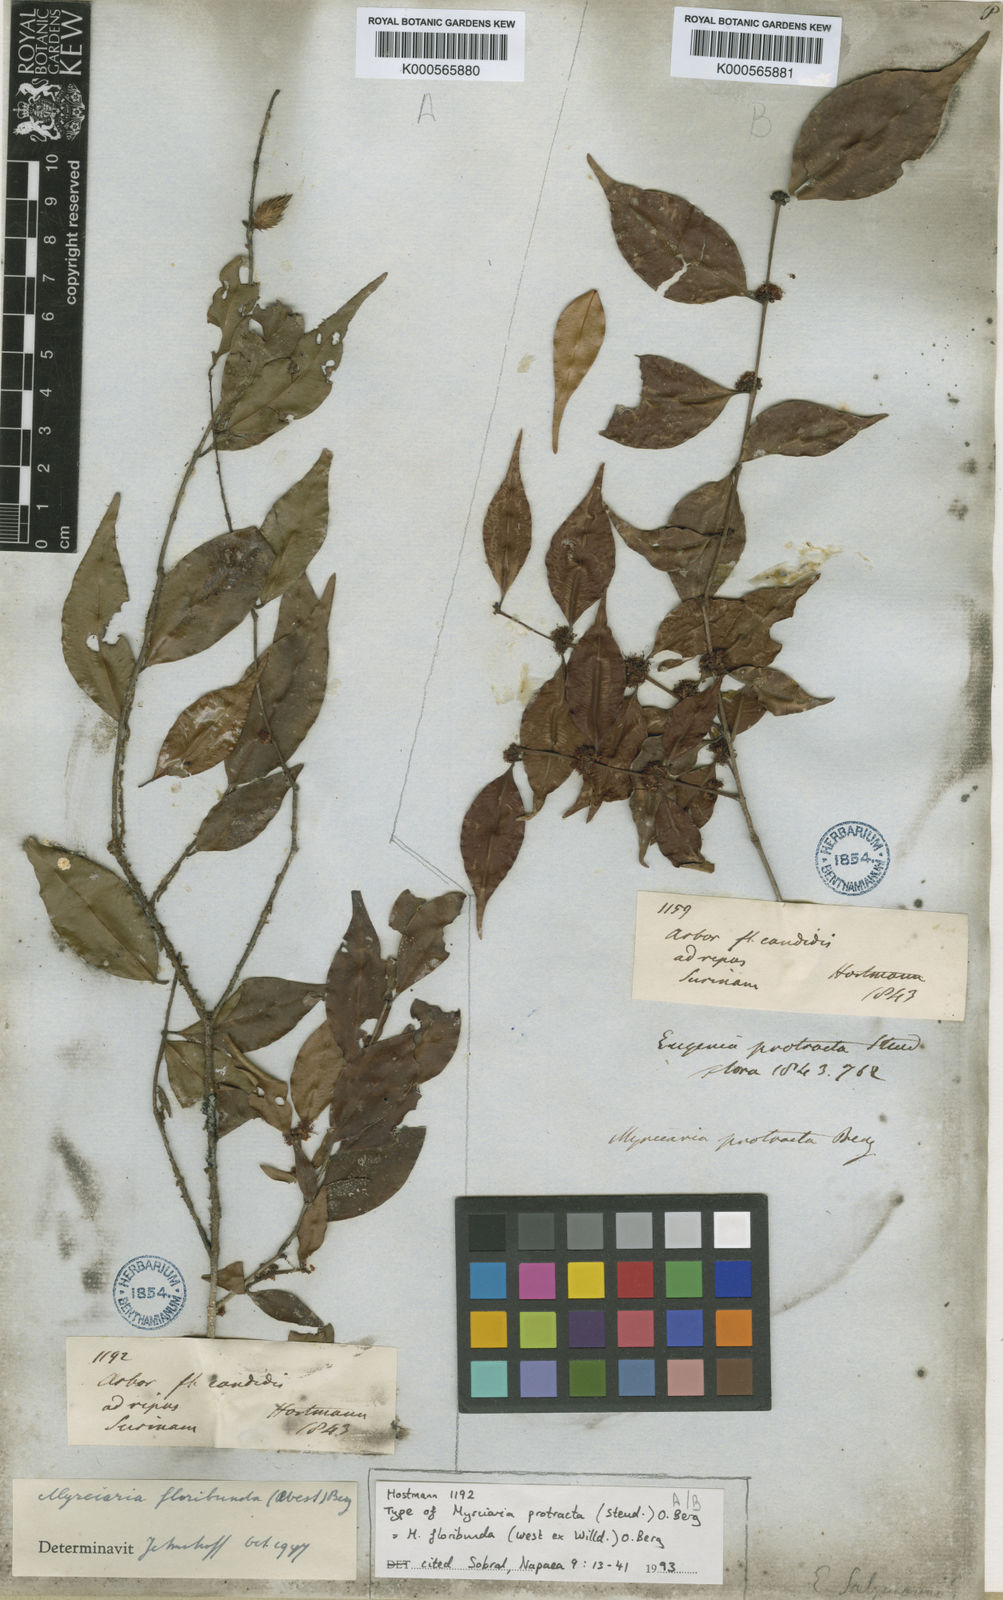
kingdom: Plantae
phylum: Tracheophyta
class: Magnoliopsida
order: Myrtales
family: Myrtaceae
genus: Myrciaria
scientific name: Myrciaria floribunda
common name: Guavaberry
